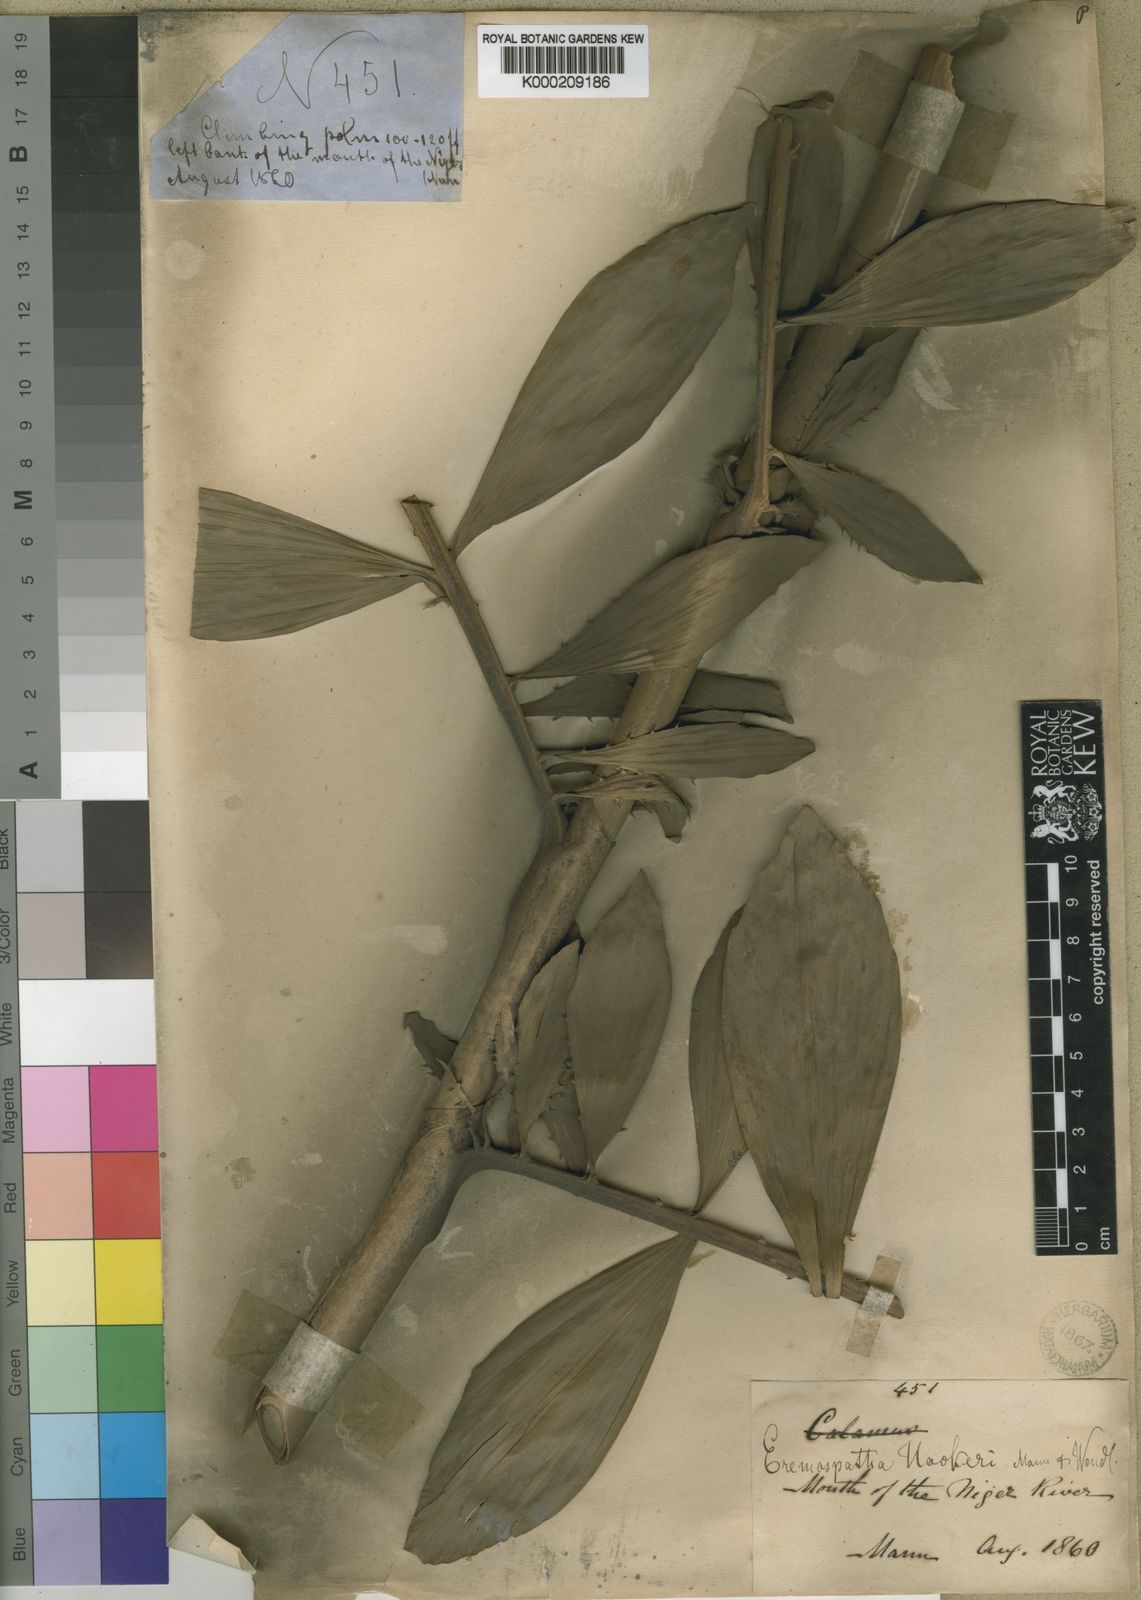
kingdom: Plantae
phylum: Tracheophyta
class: Liliopsida
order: Arecales
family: Arecaceae
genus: Eremospatha
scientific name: Eremospatha hookeri
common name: Rattan
